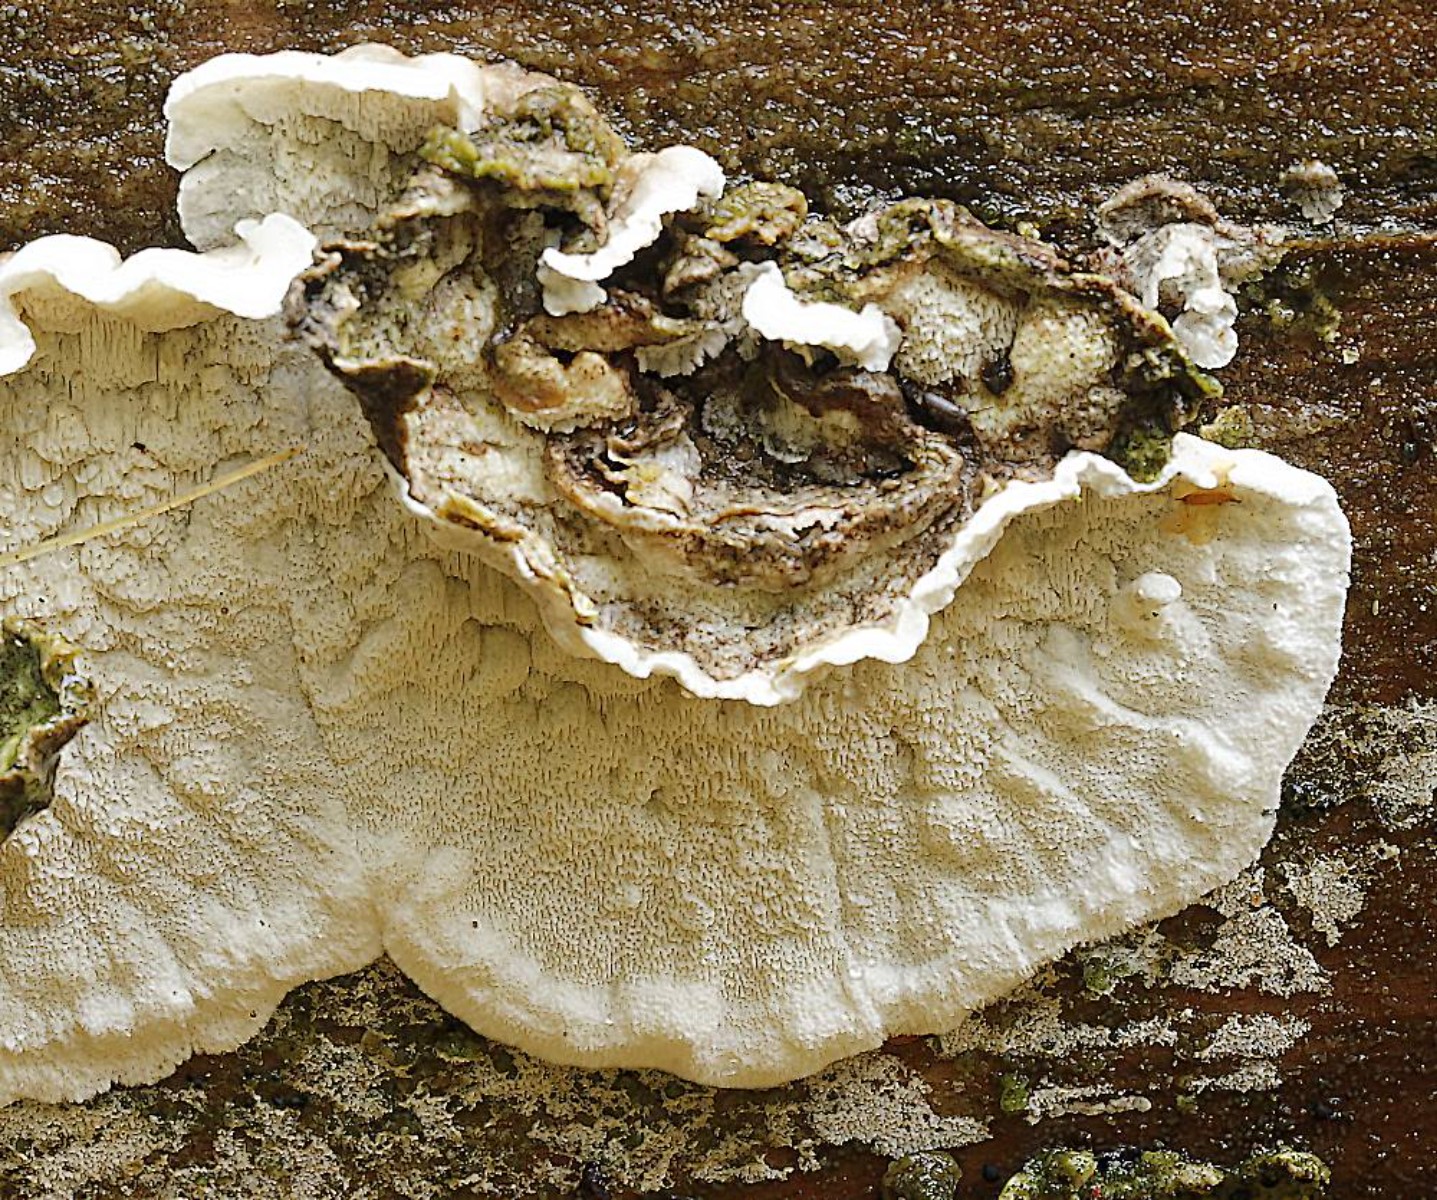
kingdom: Fungi
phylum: Basidiomycota
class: Agaricomycetes
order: Polyporales
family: Incrustoporiaceae
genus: Skeletocutis
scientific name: Skeletocutis carneogrisea
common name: rødgrå krystalporesvamp
